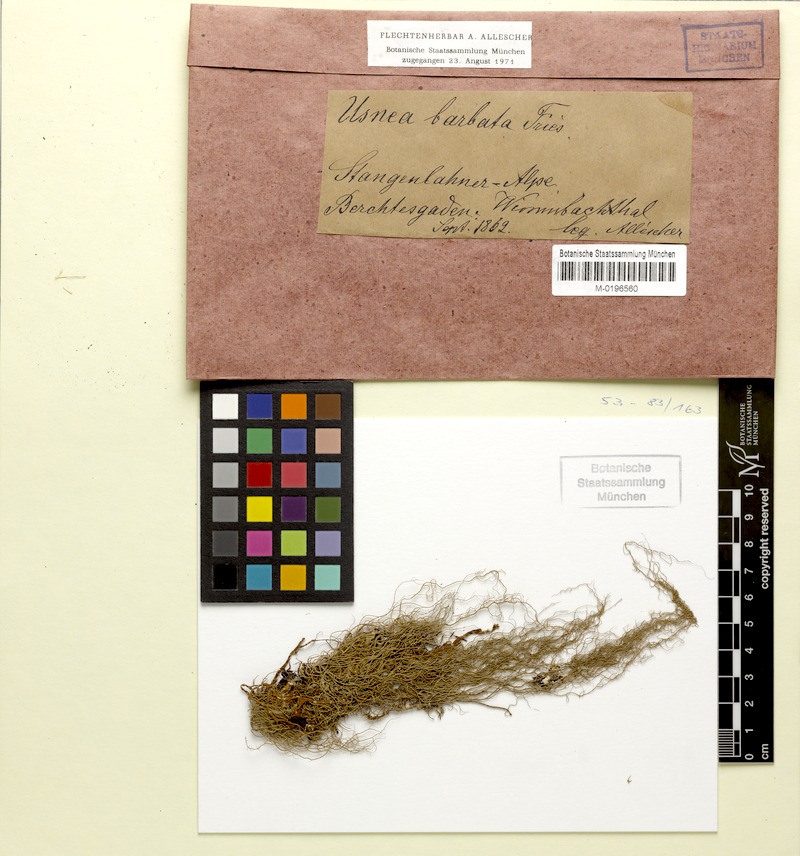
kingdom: Fungi
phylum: Ascomycota
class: Lecanoromycetes
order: Lecanorales
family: Parmeliaceae
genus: Usnea
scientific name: Usnea florida
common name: Witches' whiskers lichen
